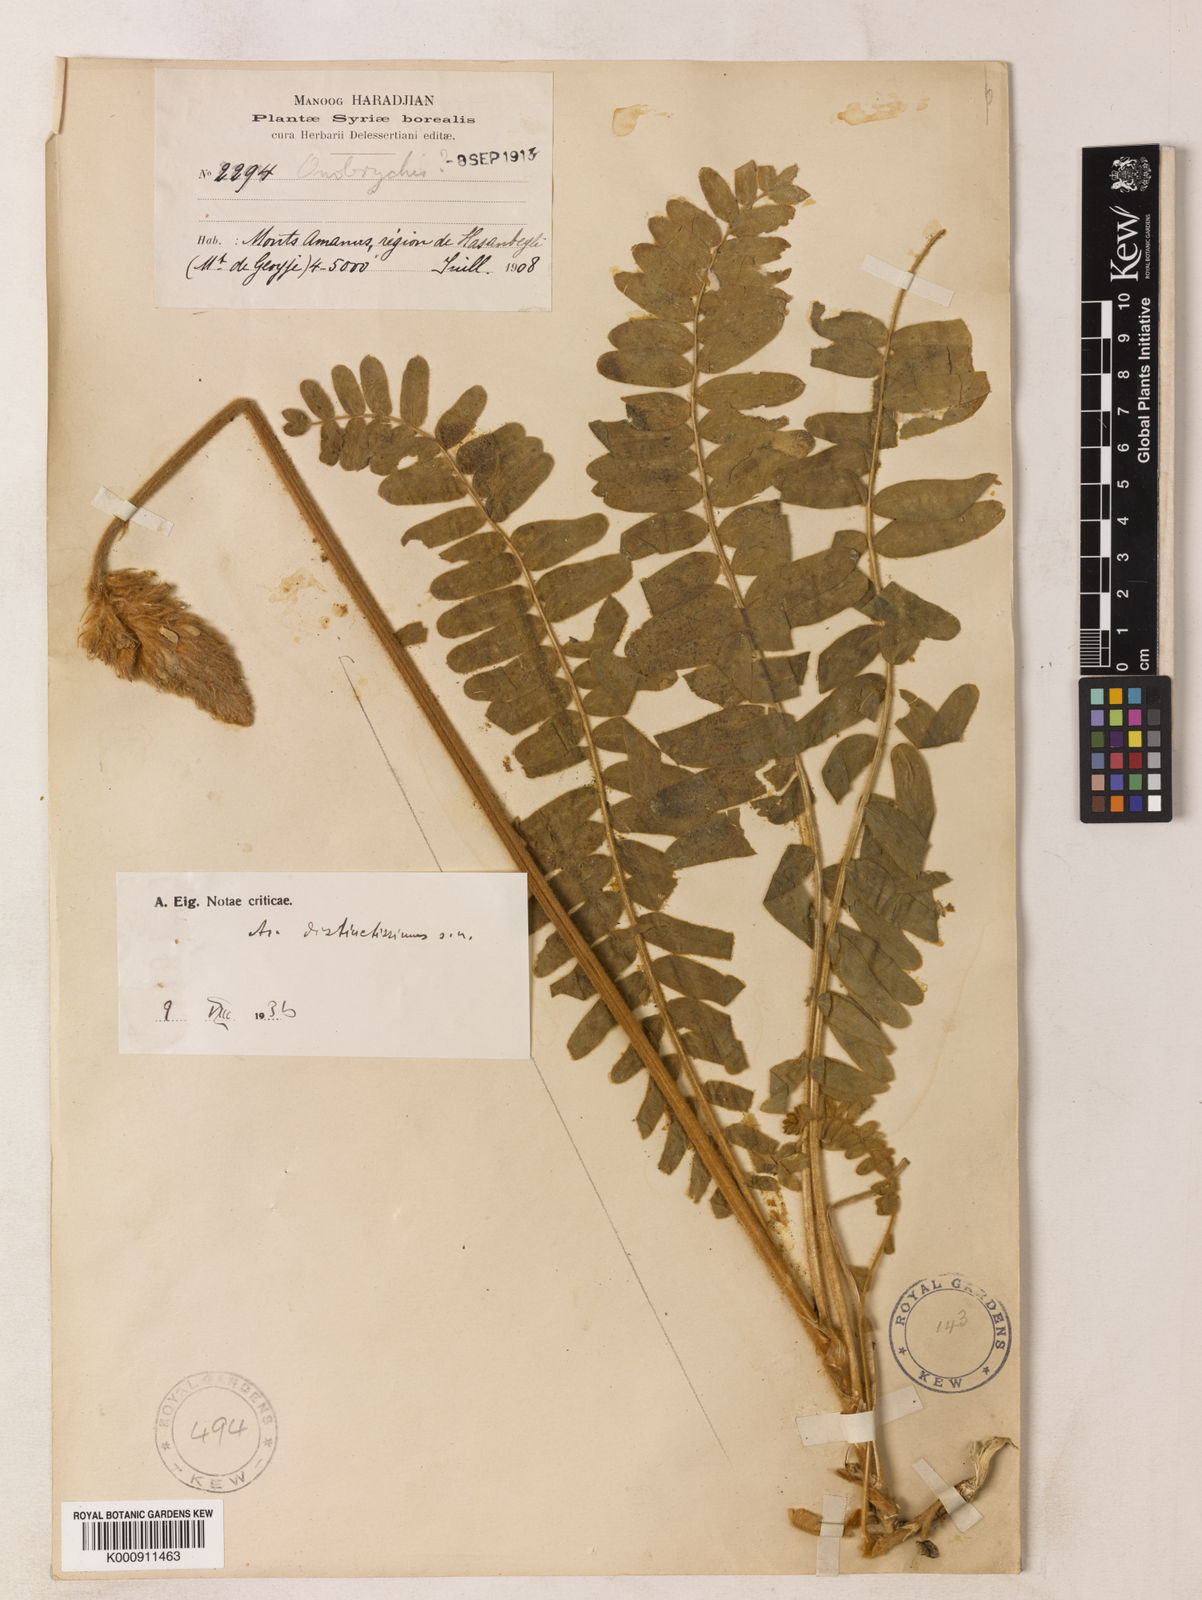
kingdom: Plantae
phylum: Tracheophyta
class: Magnoliopsida
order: Fabales
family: Fabaceae
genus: Astragalus
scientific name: Astragalus distinctissimus
